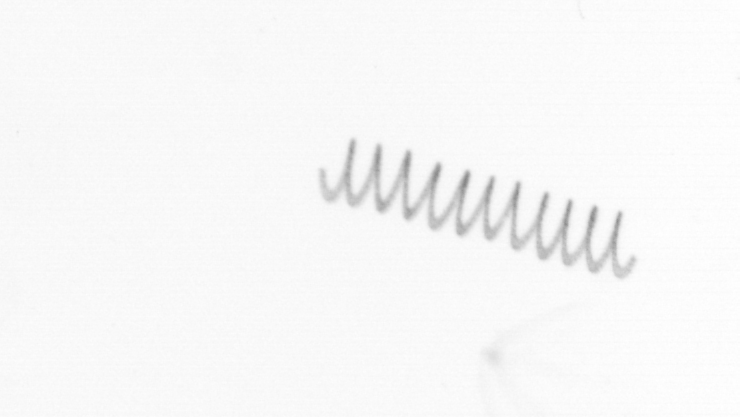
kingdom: Chromista
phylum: Ochrophyta
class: Bacillariophyceae
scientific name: Bacillariophyceae
